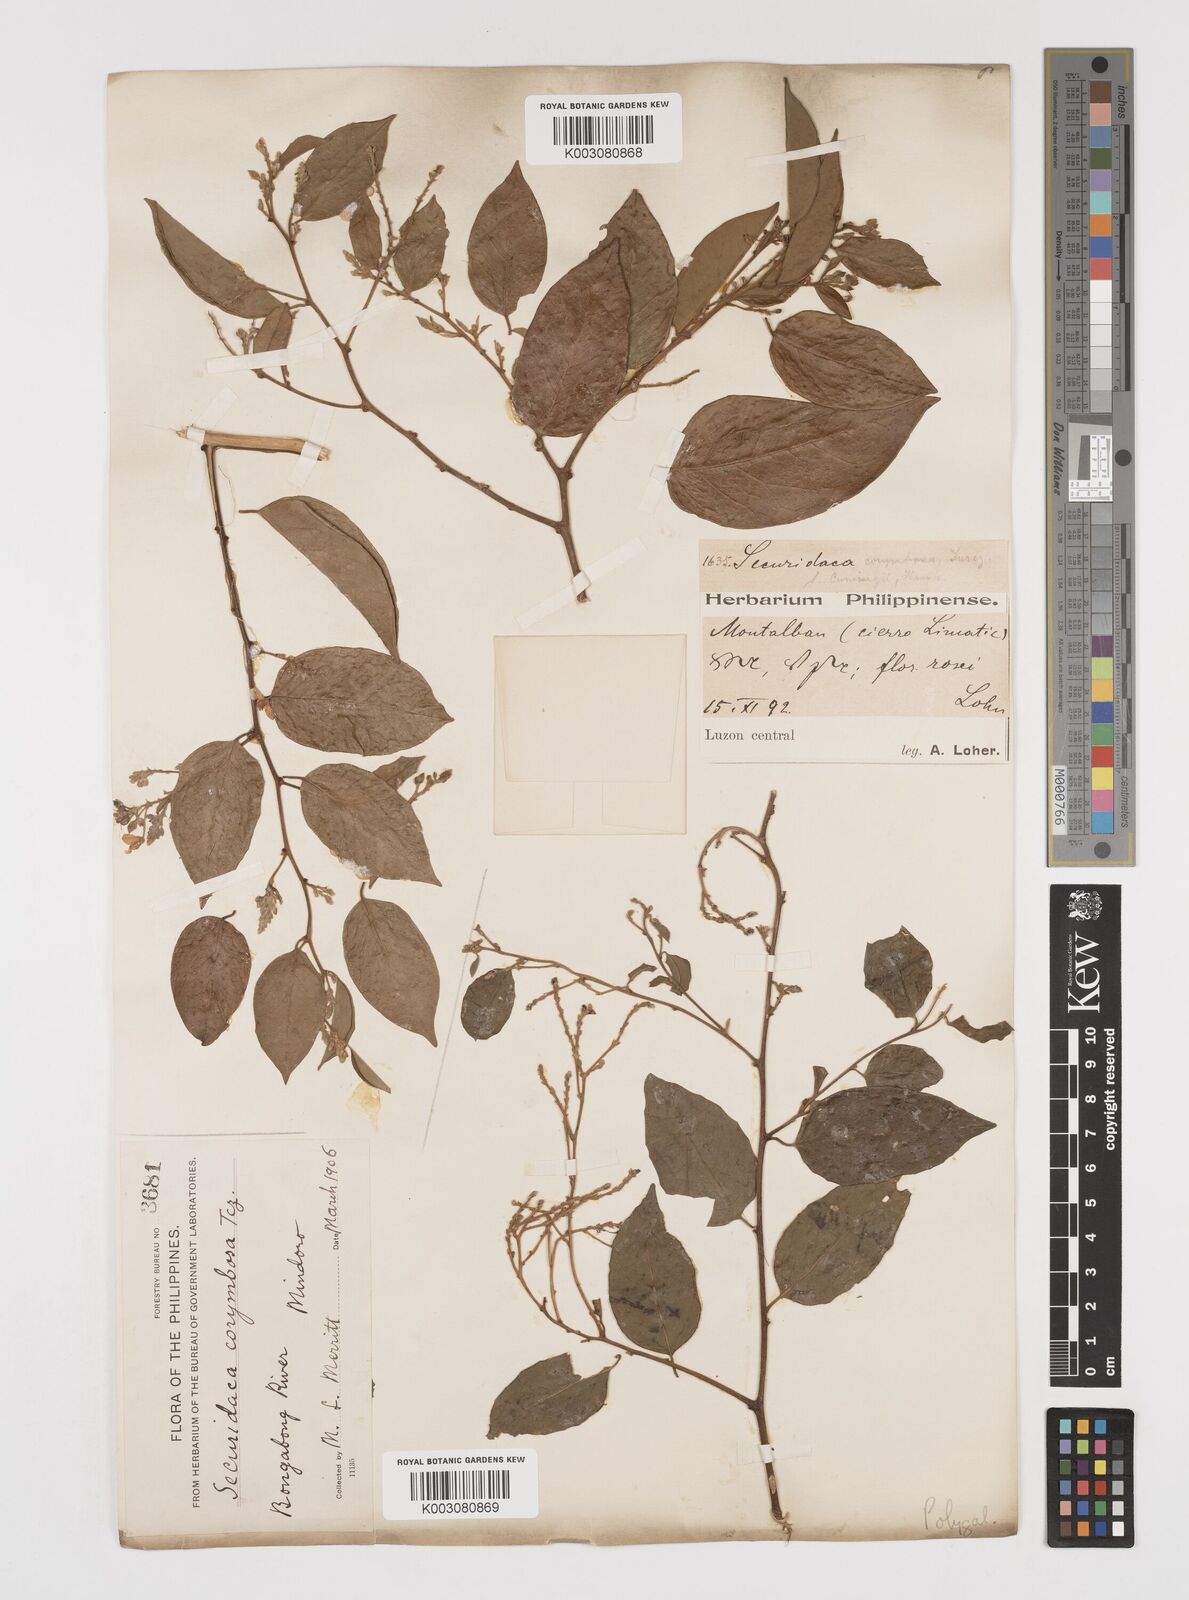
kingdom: Plantae
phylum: Tracheophyta
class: Magnoliopsida
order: Fabales
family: Polygalaceae
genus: Securidaca
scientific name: Securidaca inappendiculata
